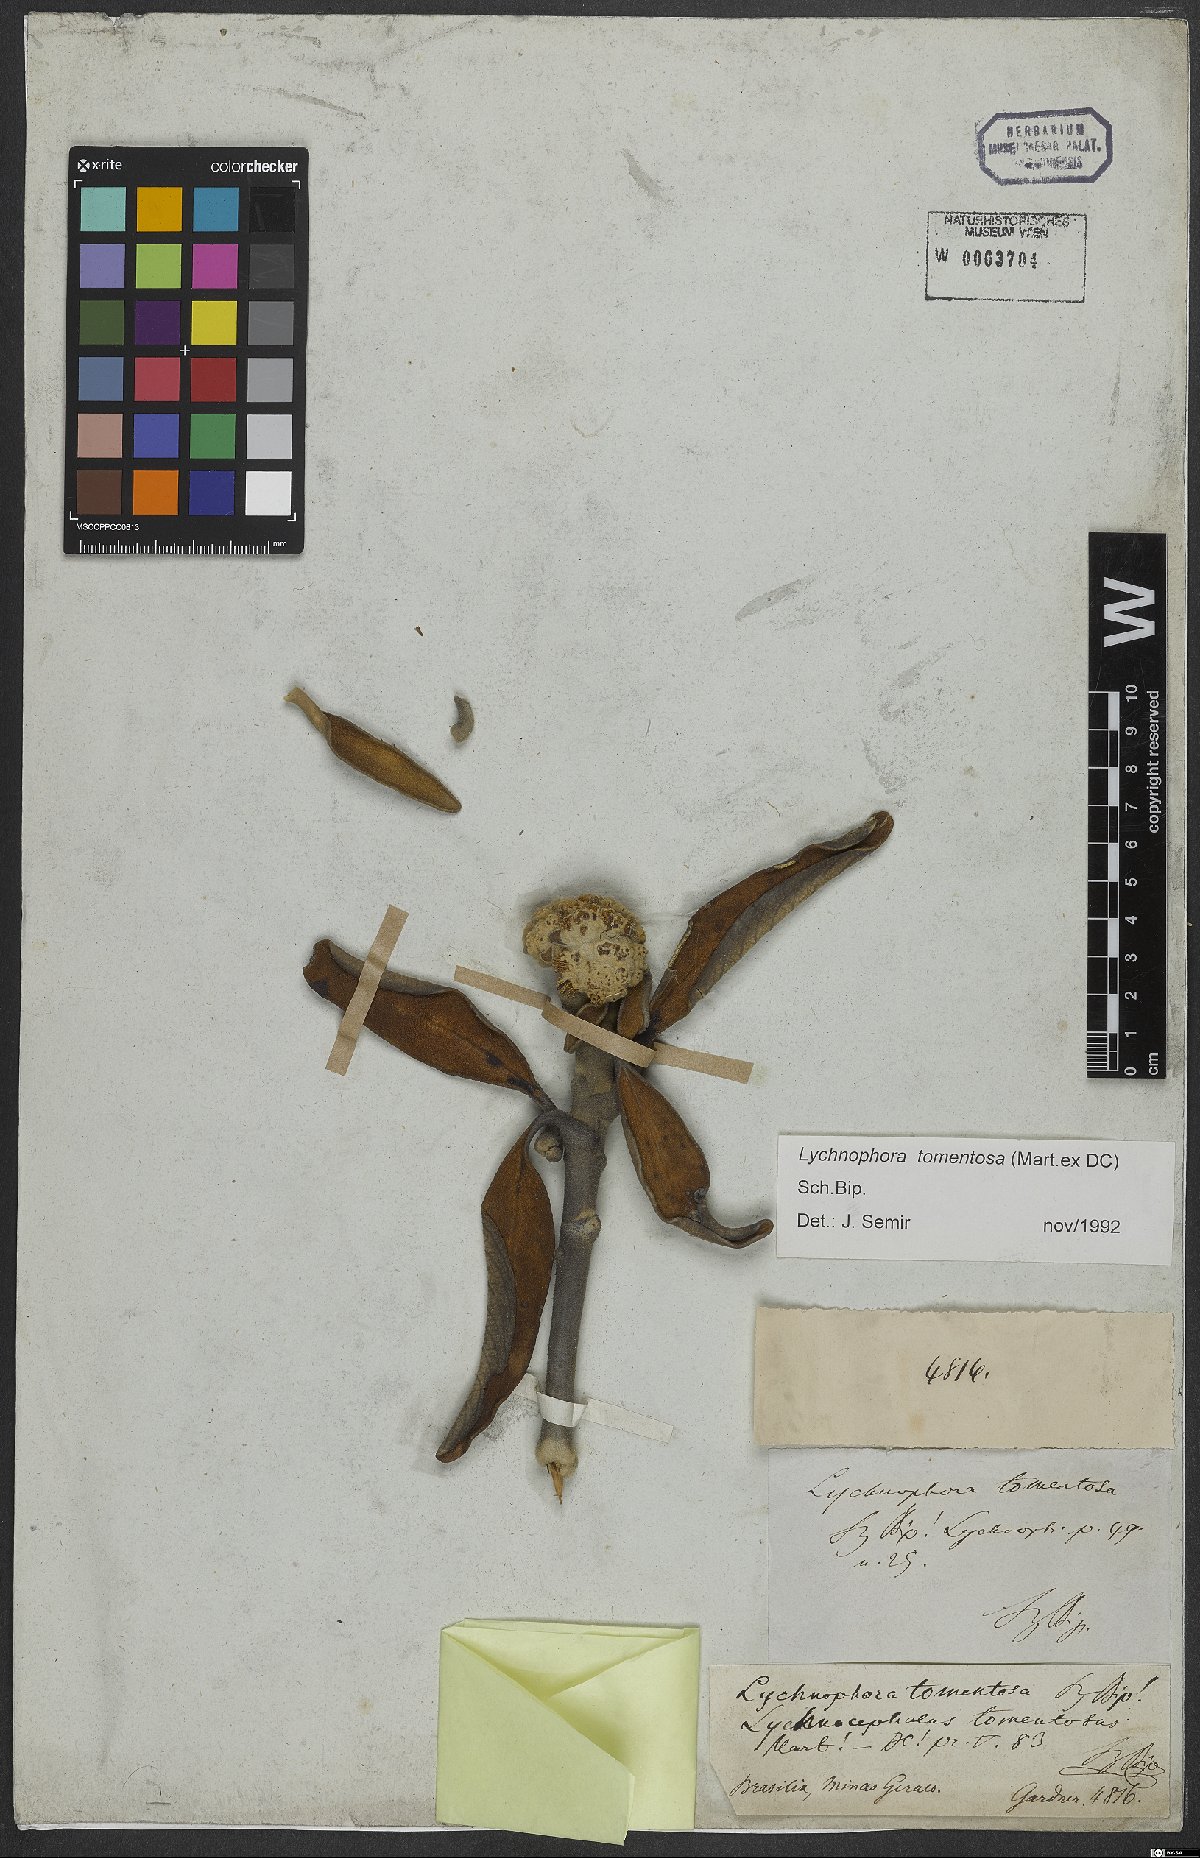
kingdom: Plantae
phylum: Tracheophyta
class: Magnoliopsida
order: Asterales
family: Asteraceae
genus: Lychnocephalus
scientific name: Lychnocephalus tomentosus
